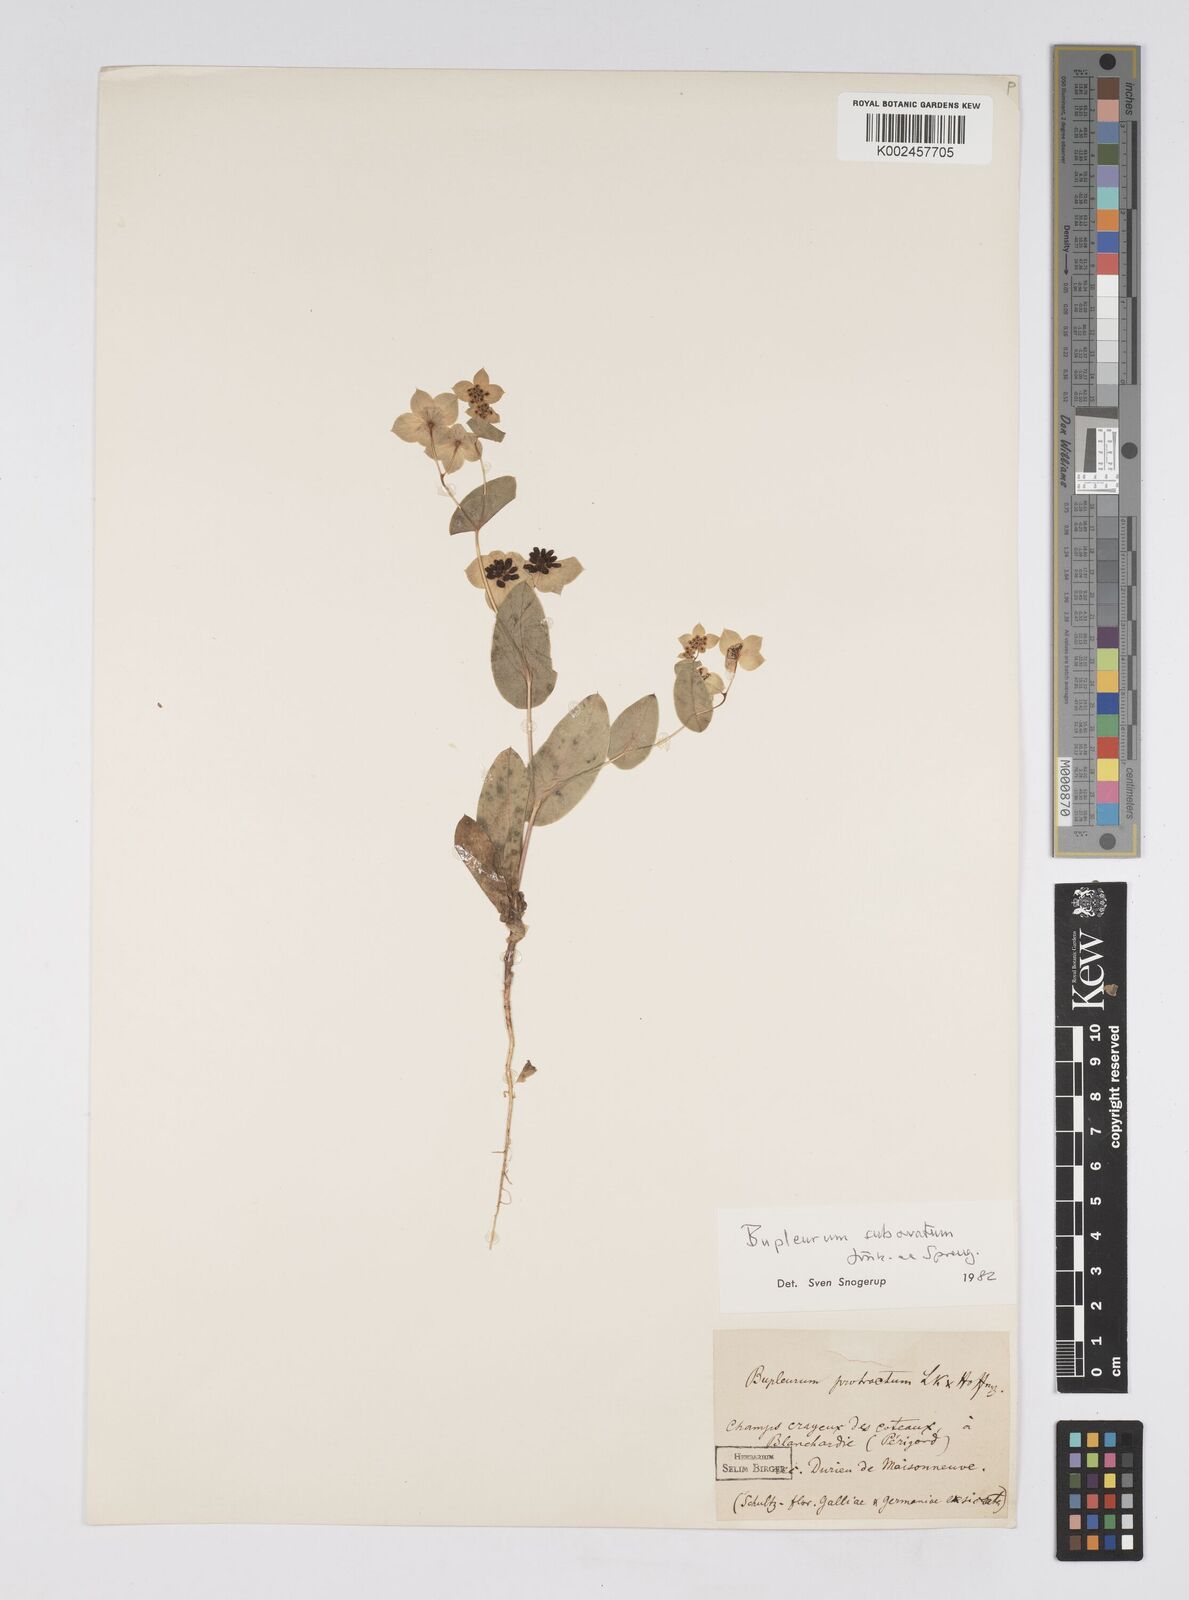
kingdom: Plantae
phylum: Tracheophyta
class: Magnoliopsida
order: Apiales
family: Apiaceae
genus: Bupleurum
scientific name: Bupleurum lancifolium
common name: False thorow-wax
